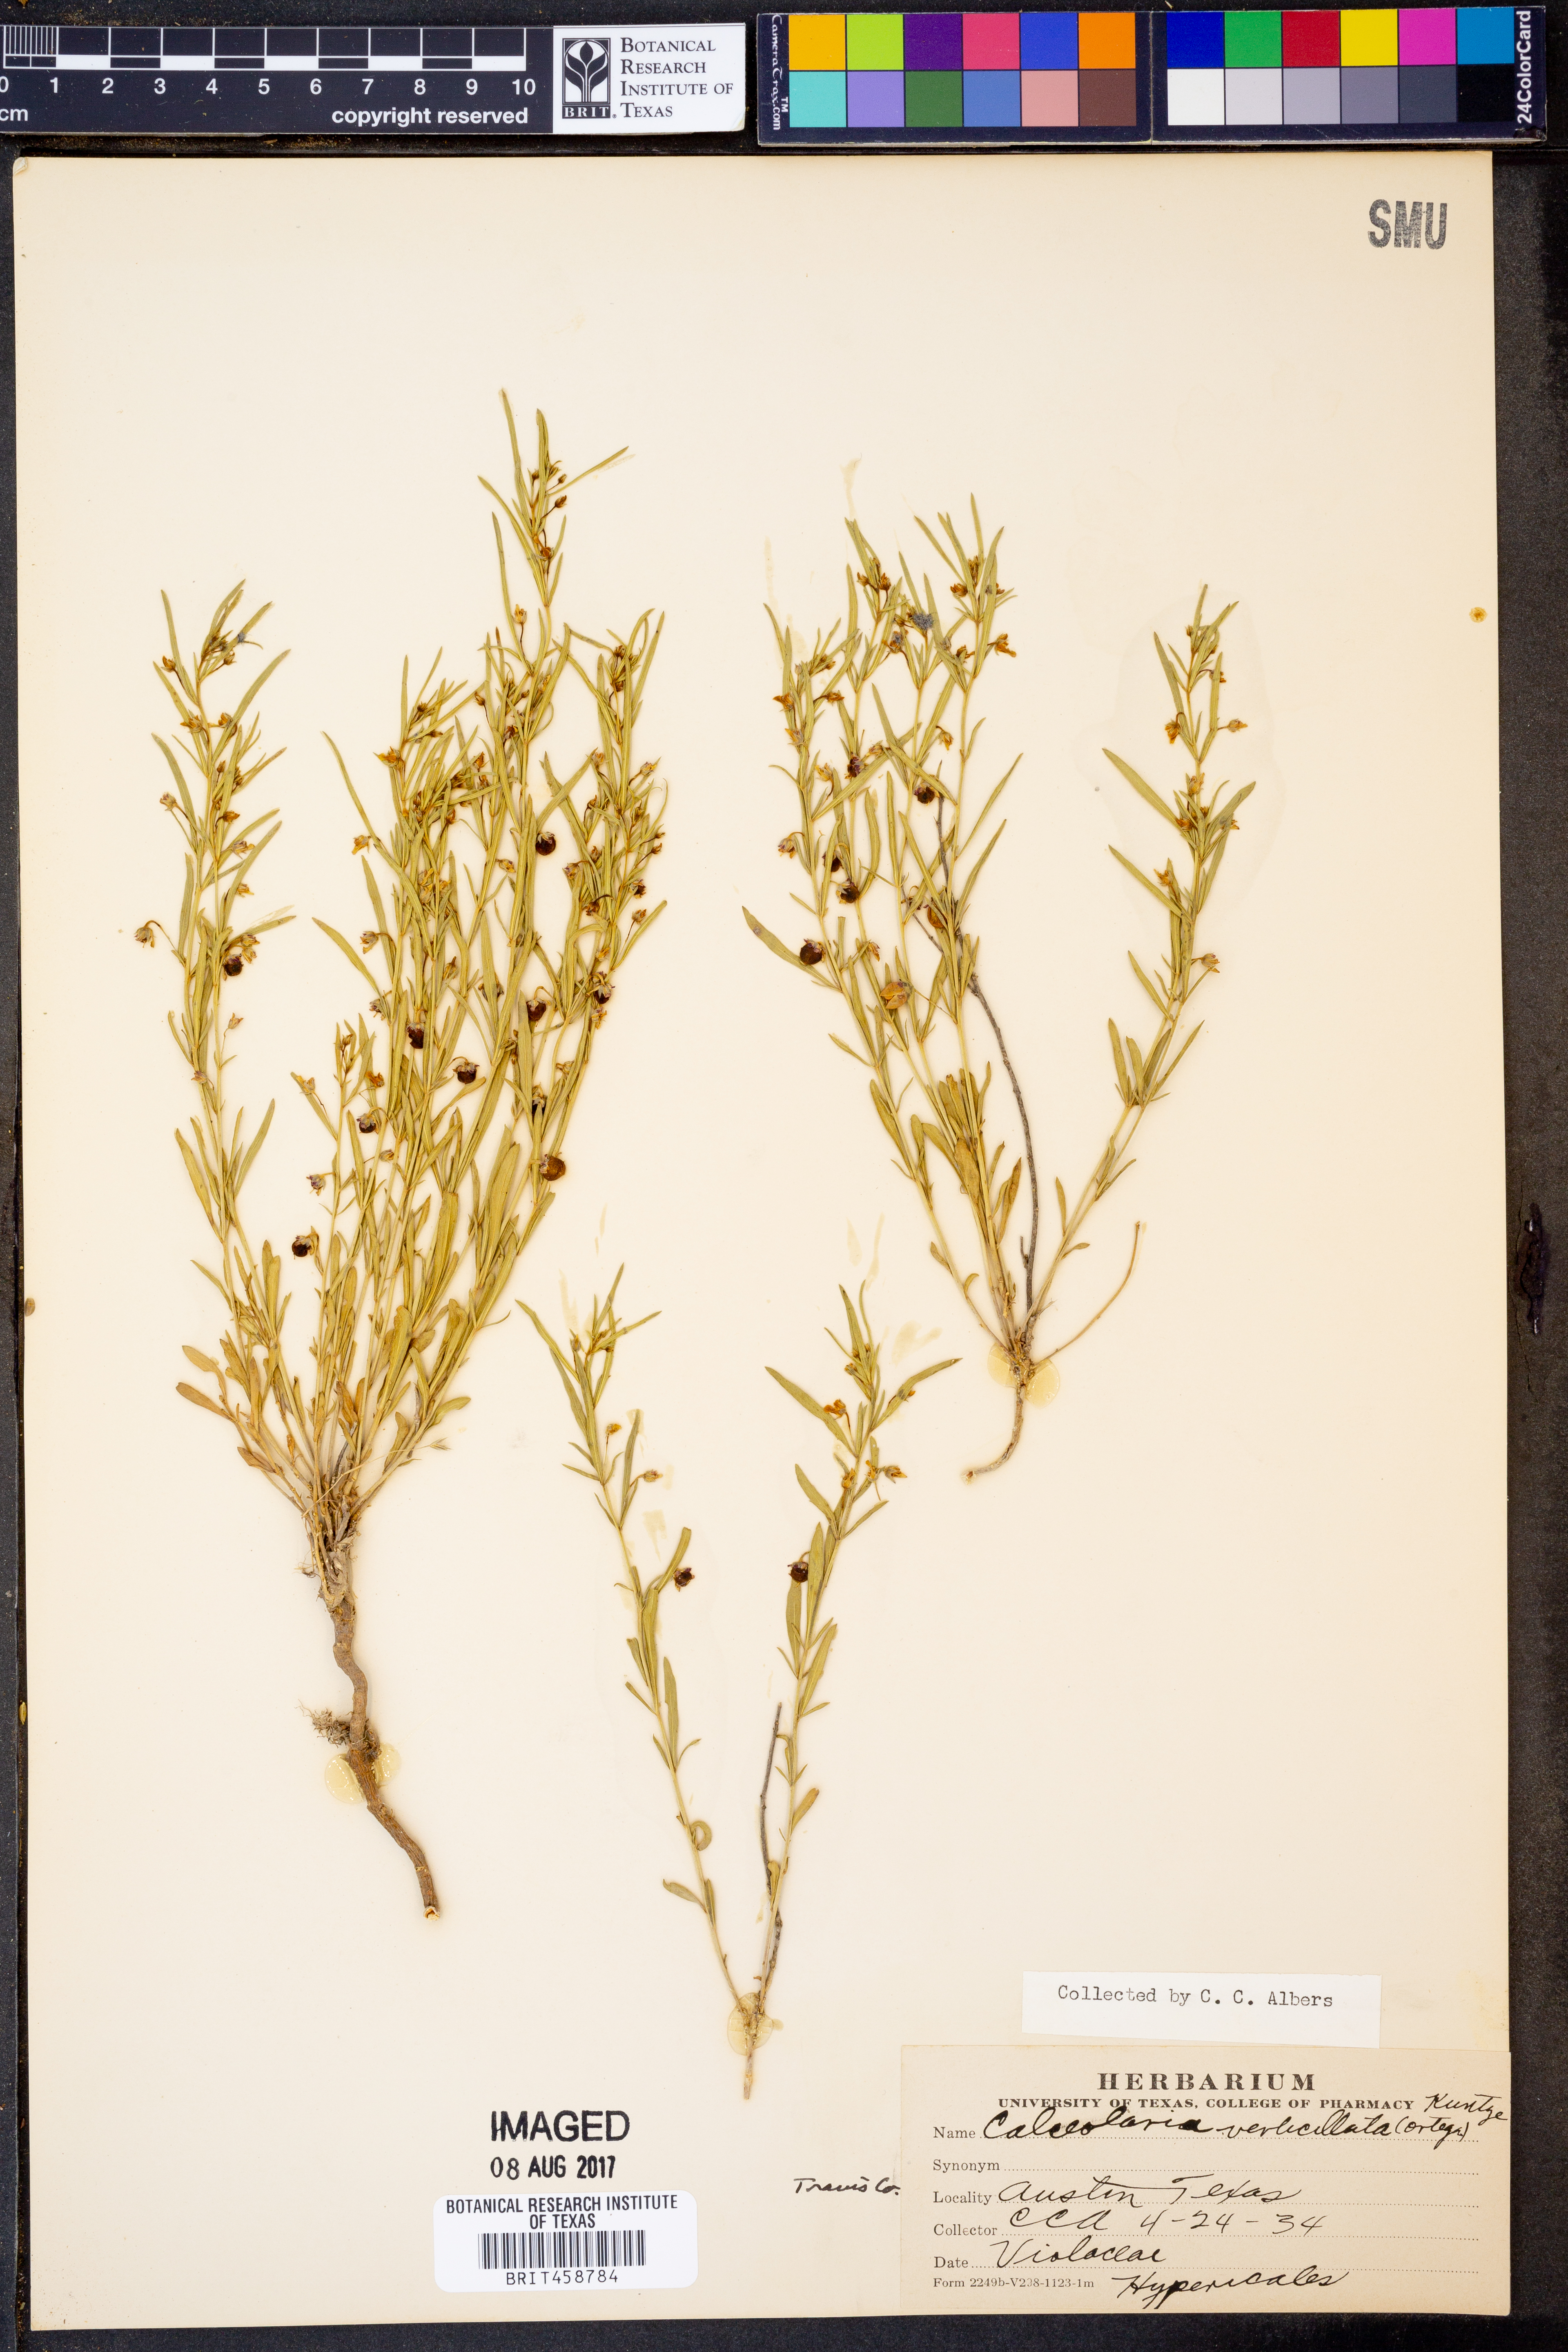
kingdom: Plantae
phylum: Tracheophyta
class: Magnoliopsida
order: Malpighiales
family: Violaceae
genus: Pombalia
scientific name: Pombalia verticillata
